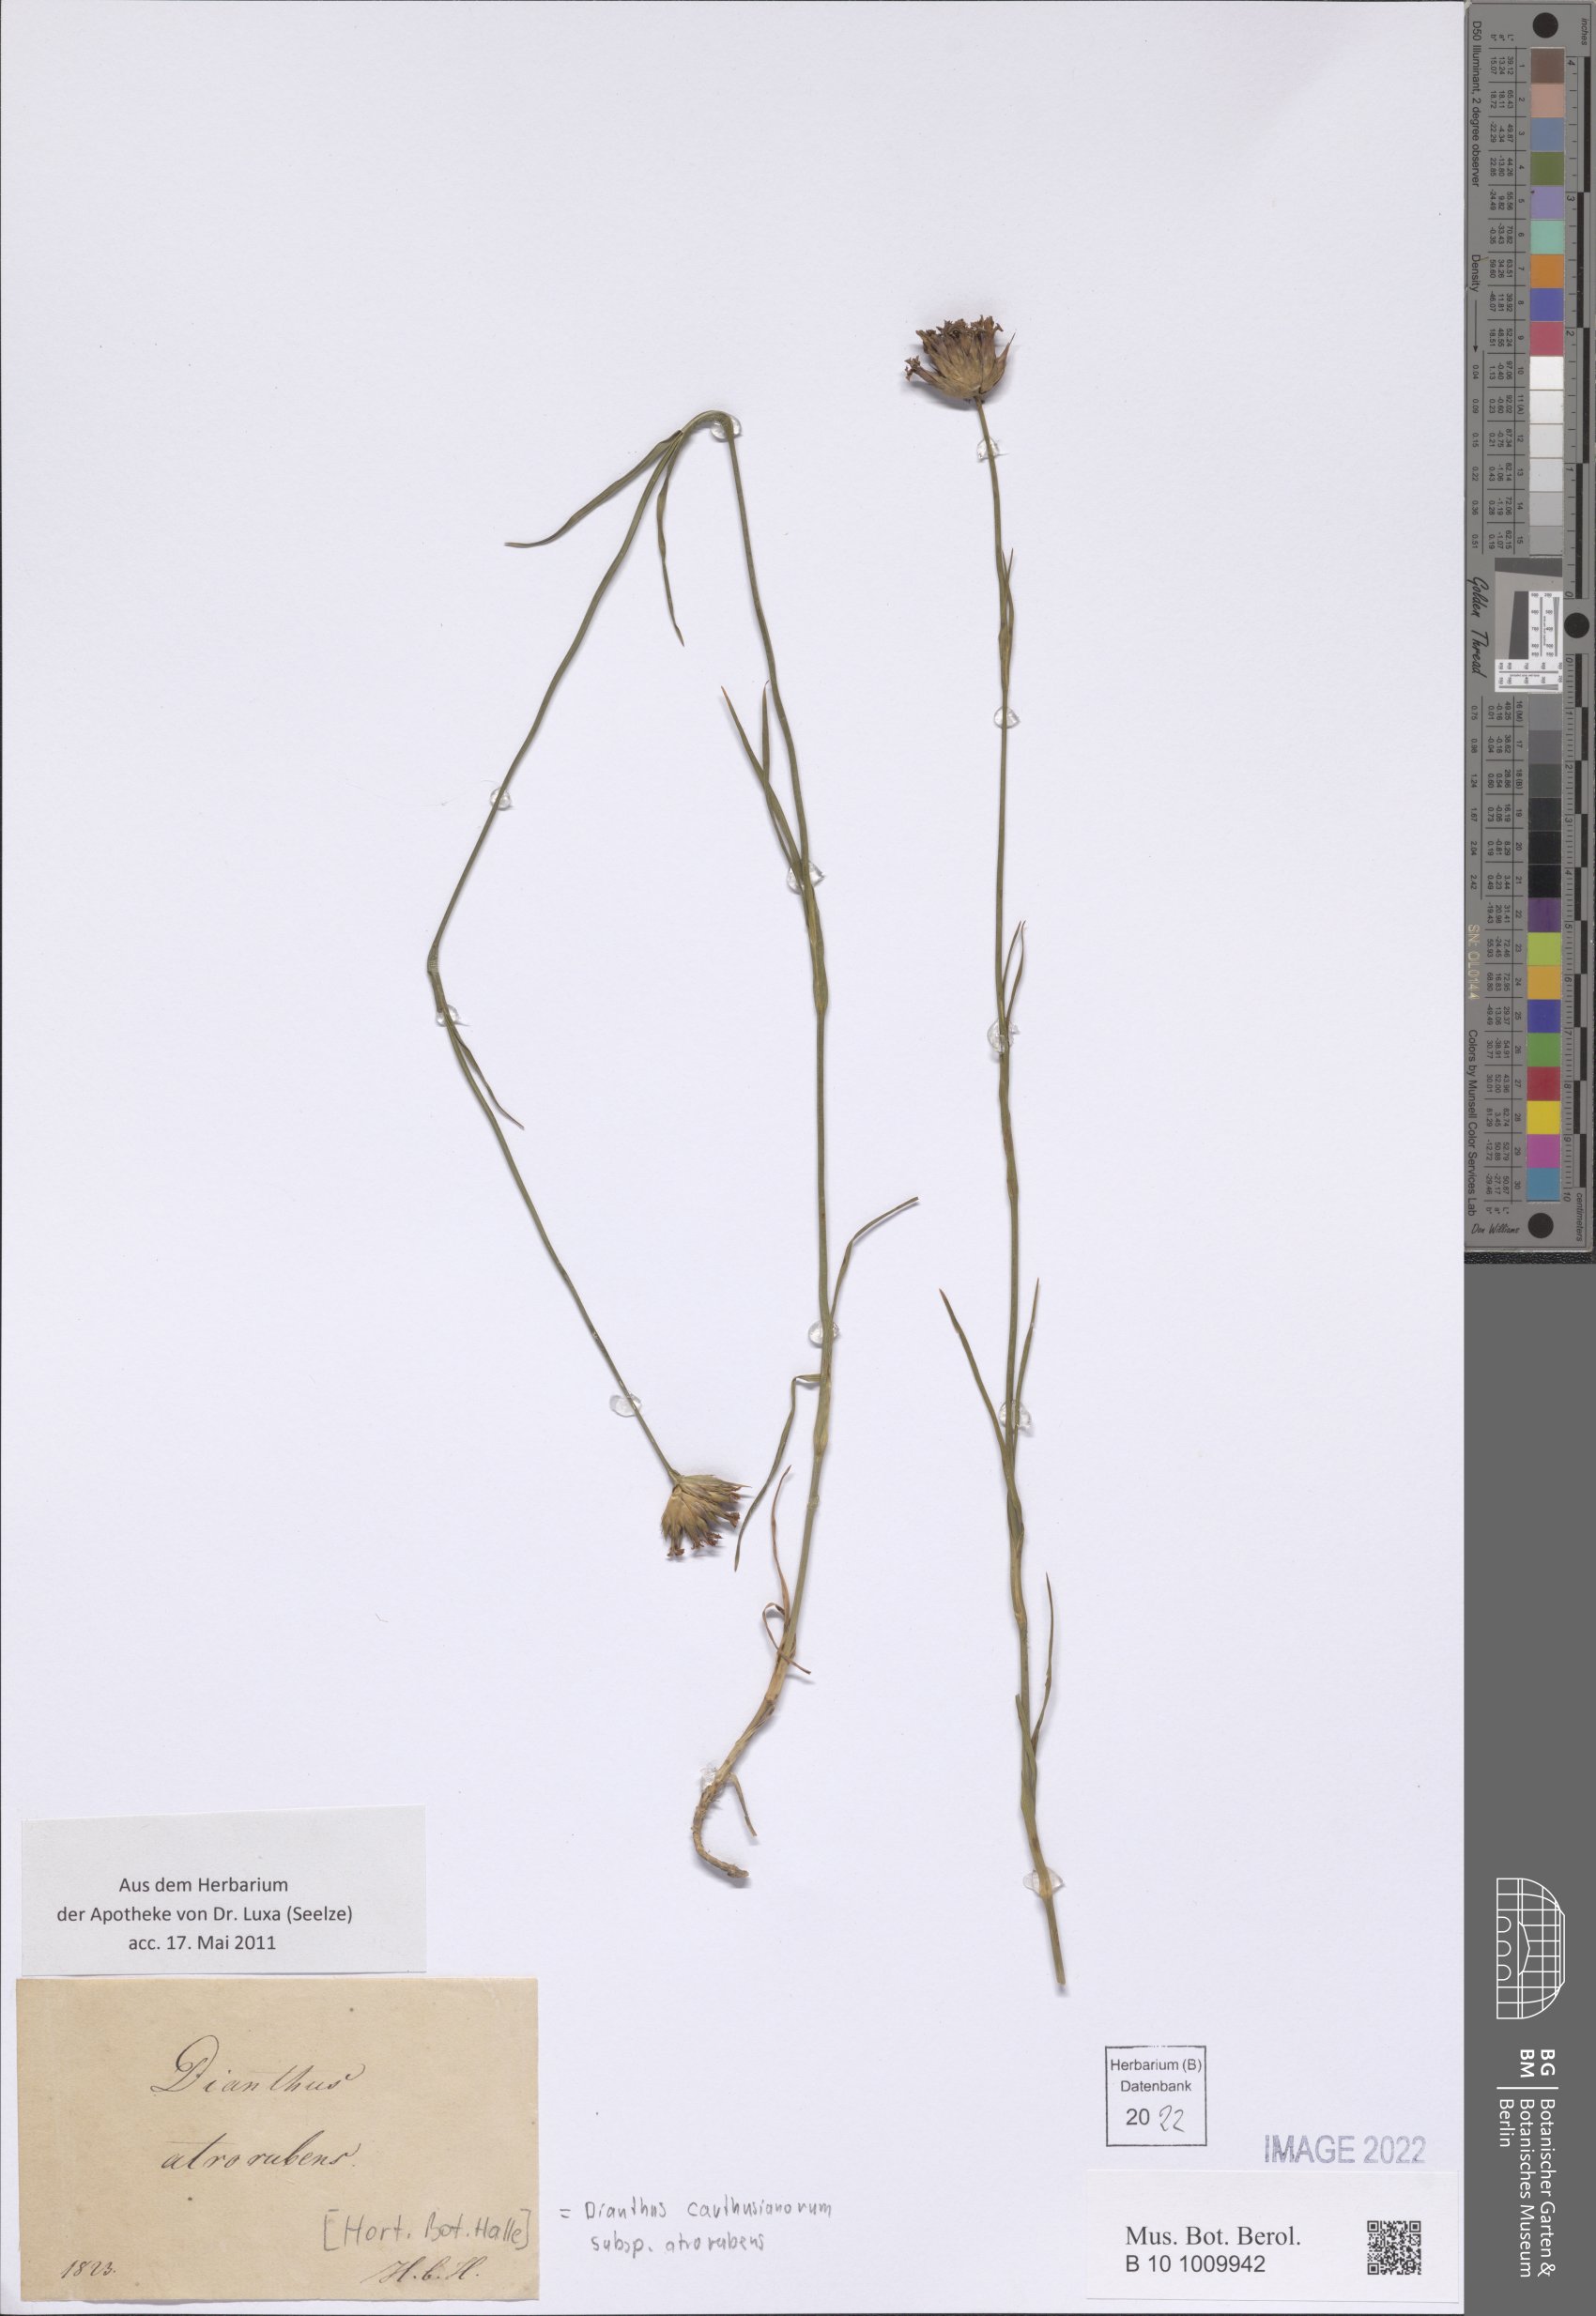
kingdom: Plantae
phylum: Tracheophyta
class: Magnoliopsida
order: Caryophyllales
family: Caryophyllaceae
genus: Dianthus
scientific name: Dianthus carthusianorum
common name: Carthusian pink
